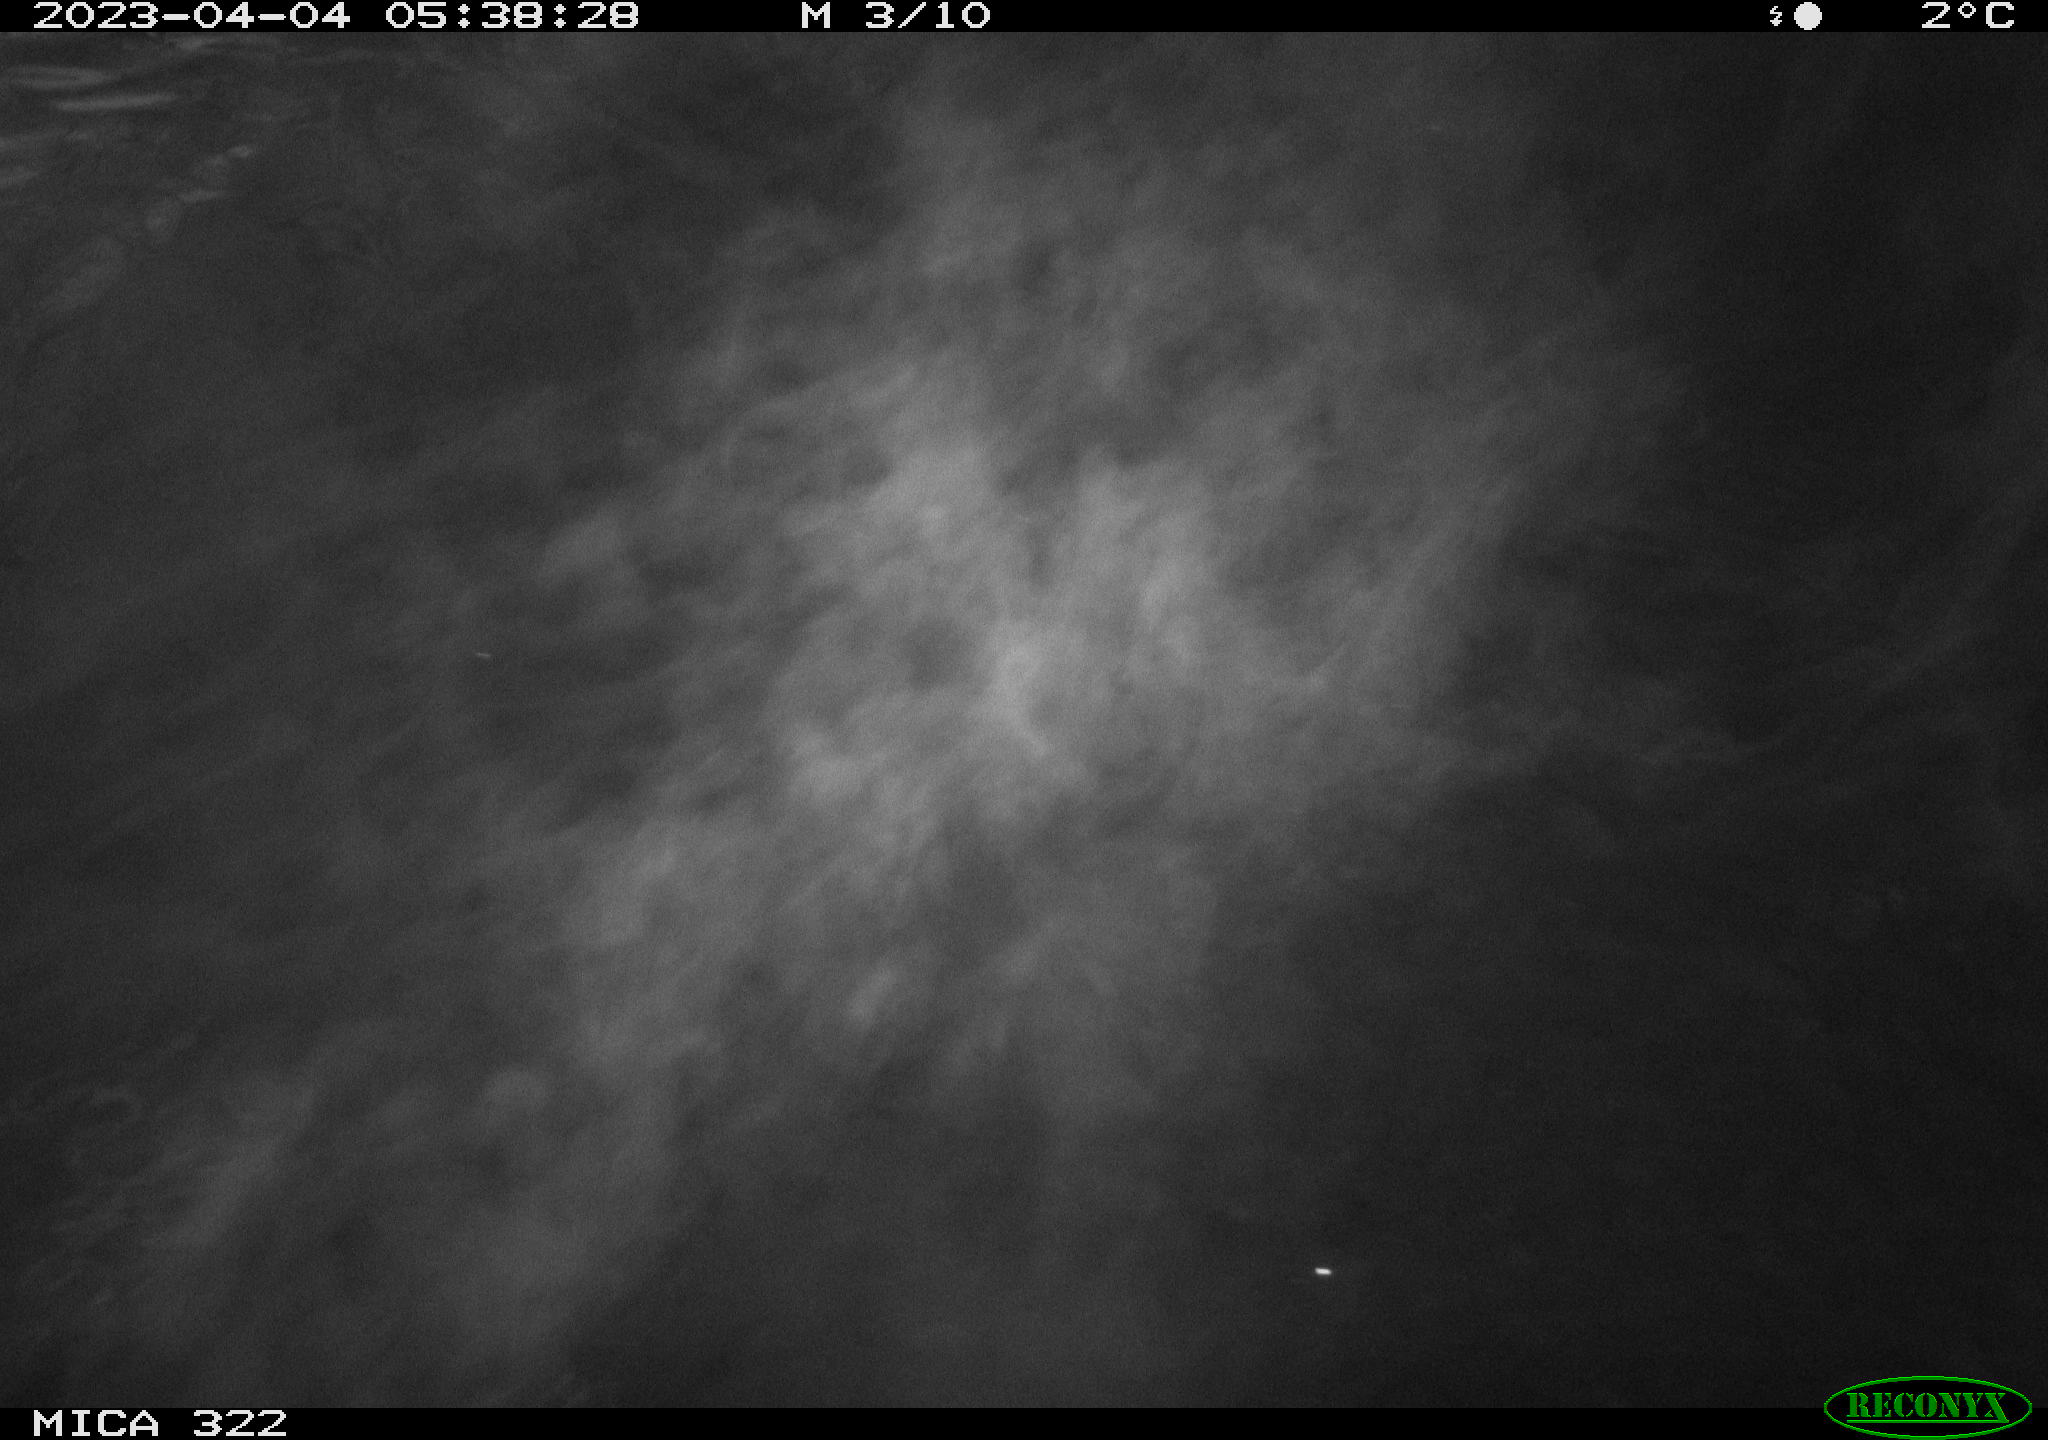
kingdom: Animalia
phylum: Chordata
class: Aves
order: Anseriformes
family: Anatidae
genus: Anas
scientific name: Anas
